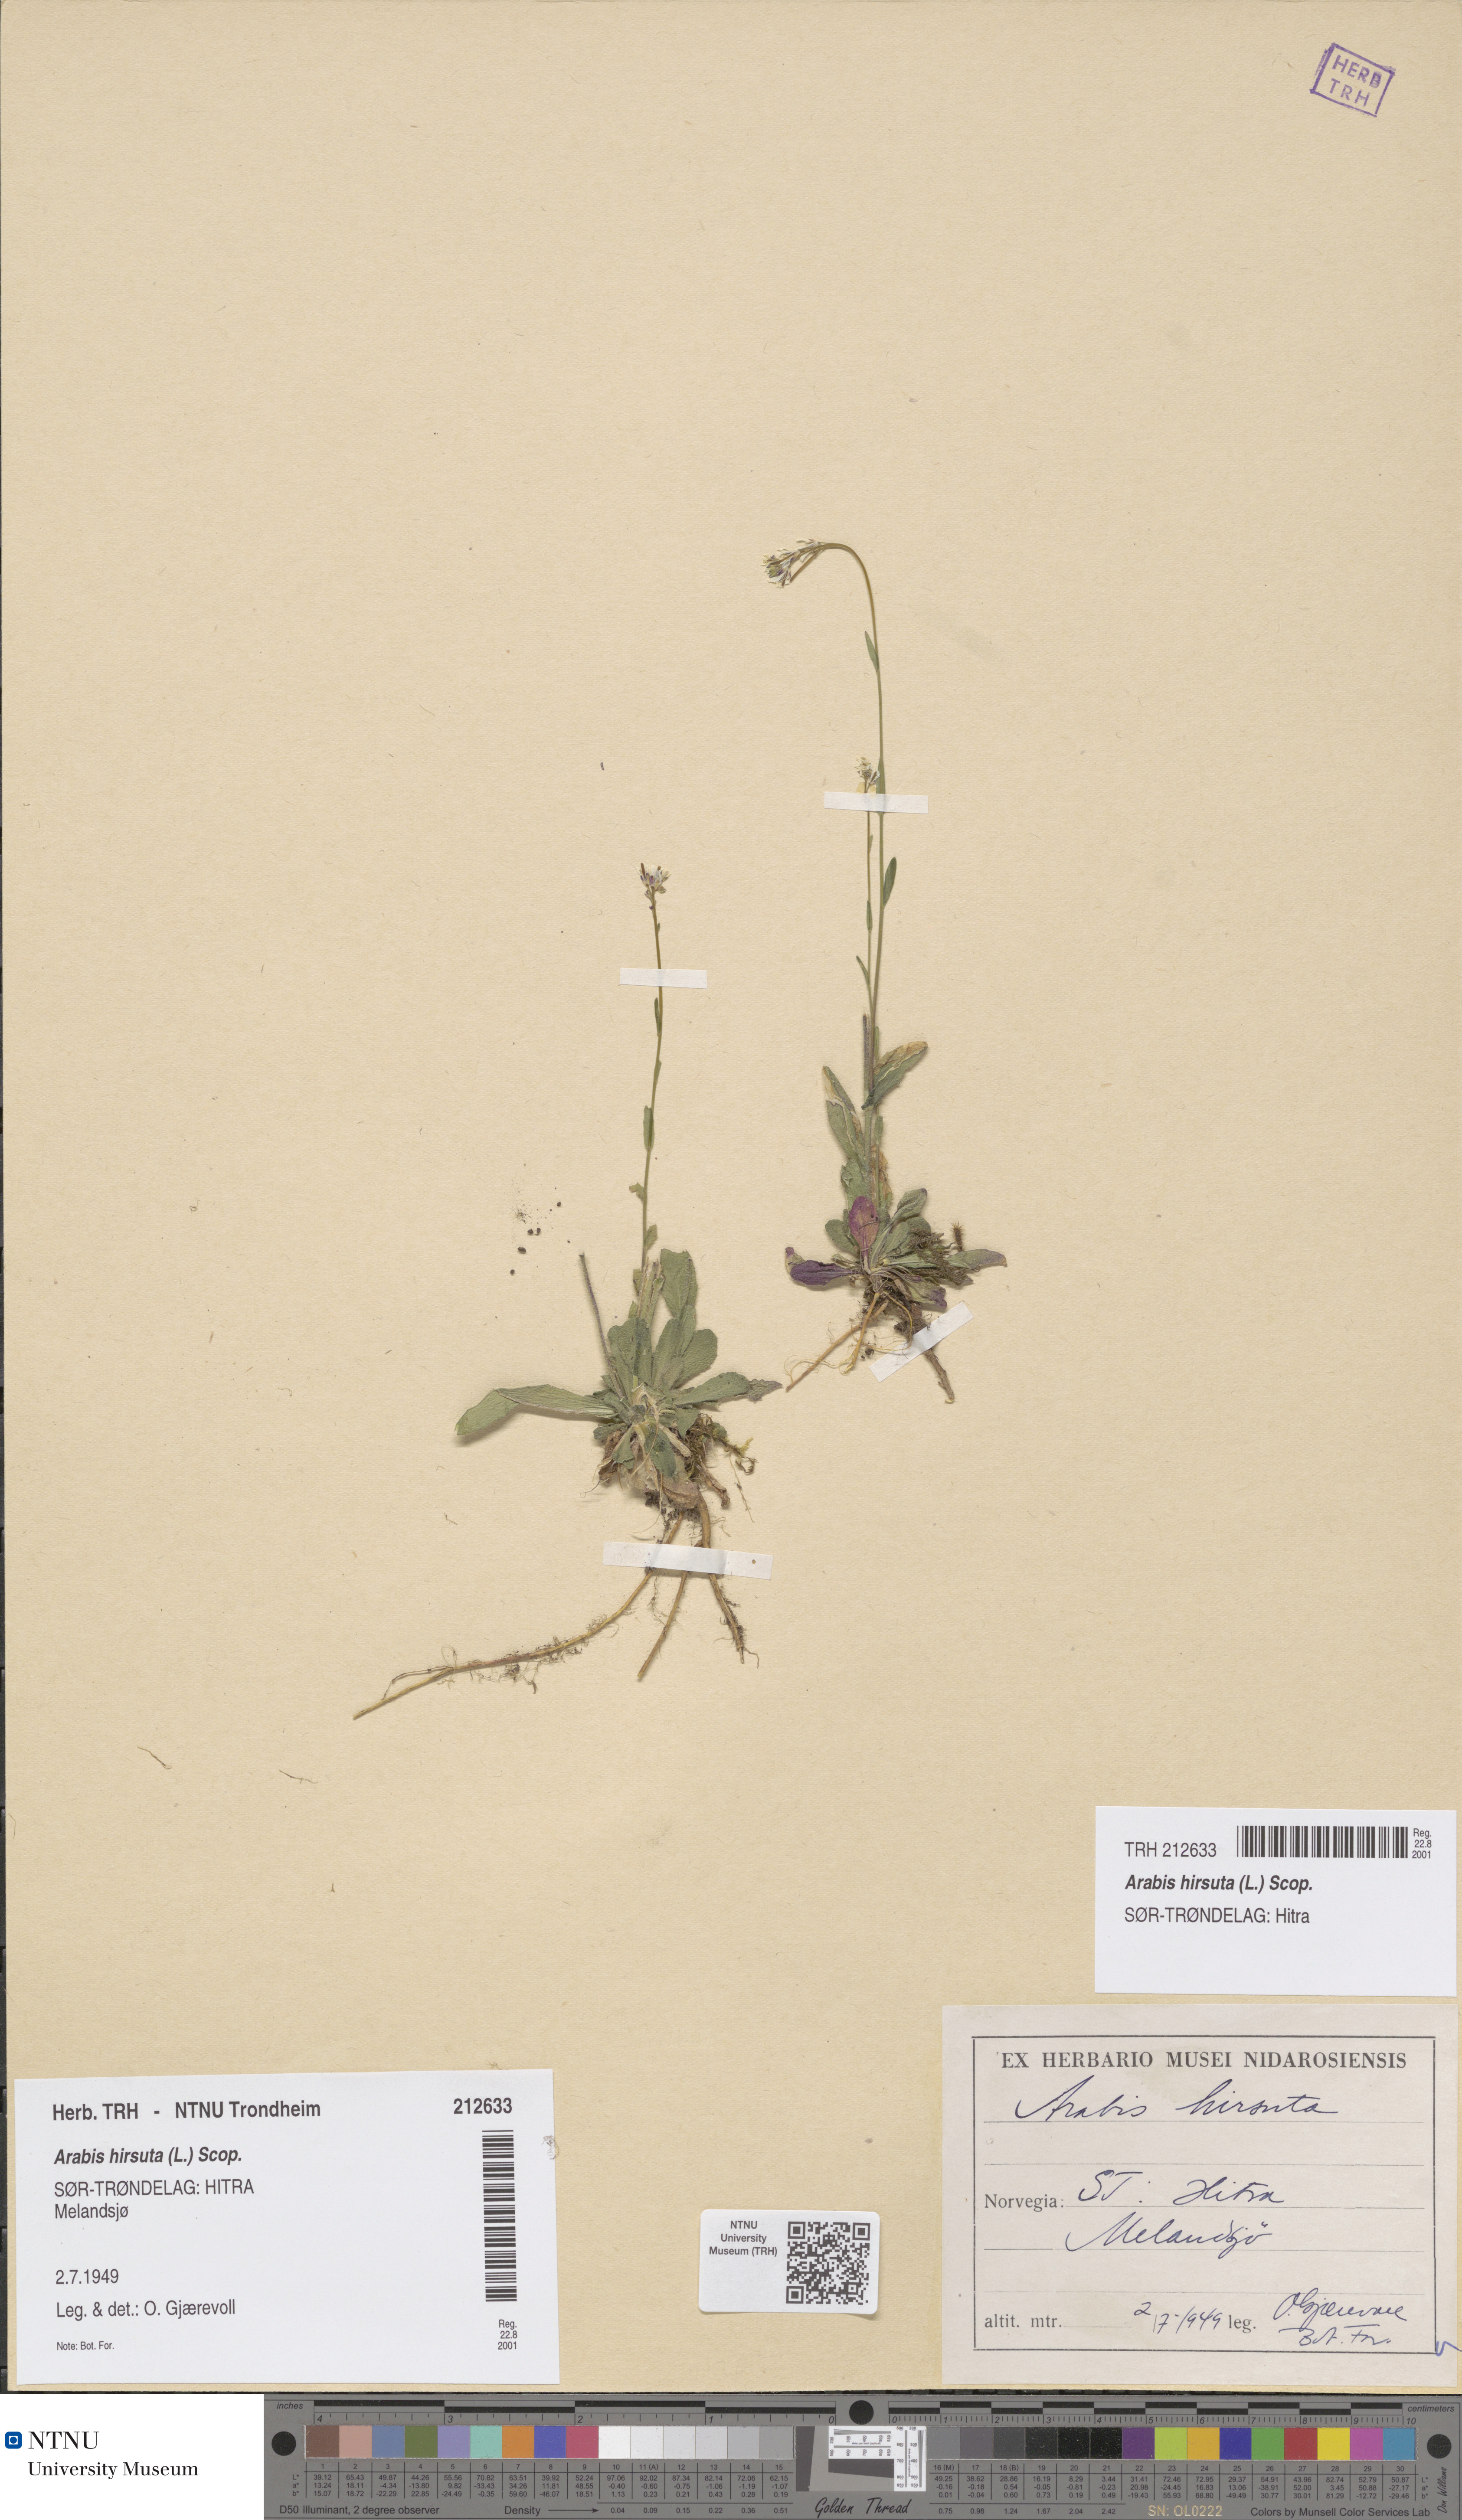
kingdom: Plantae
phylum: Tracheophyta
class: Magnoliopsida
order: Brassicales
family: Brassicaceae
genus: Arabis
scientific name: Arabis hirsuta
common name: Hairy rock-cress
